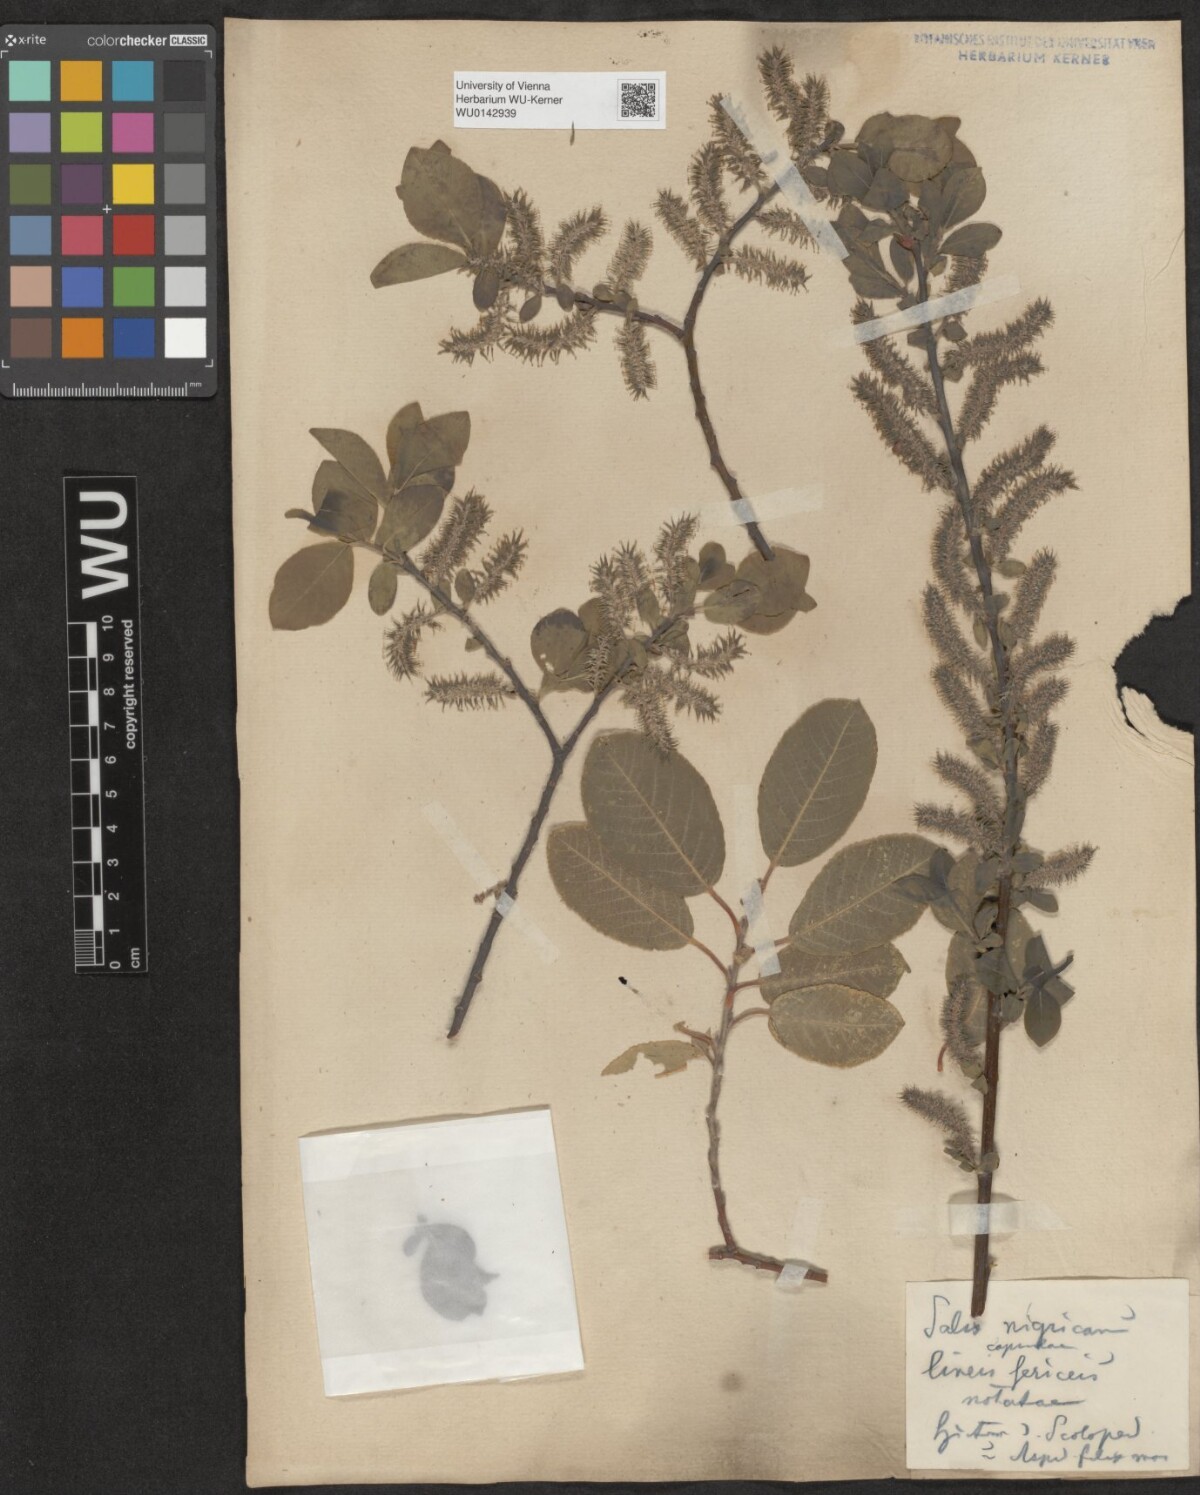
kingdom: Plantae
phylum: Tracheophyta
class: Magnoliopsida
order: Malpighiales
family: Salicaceae
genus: Salix
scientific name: Salix myrsinifolia
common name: Dark-leaved willow
